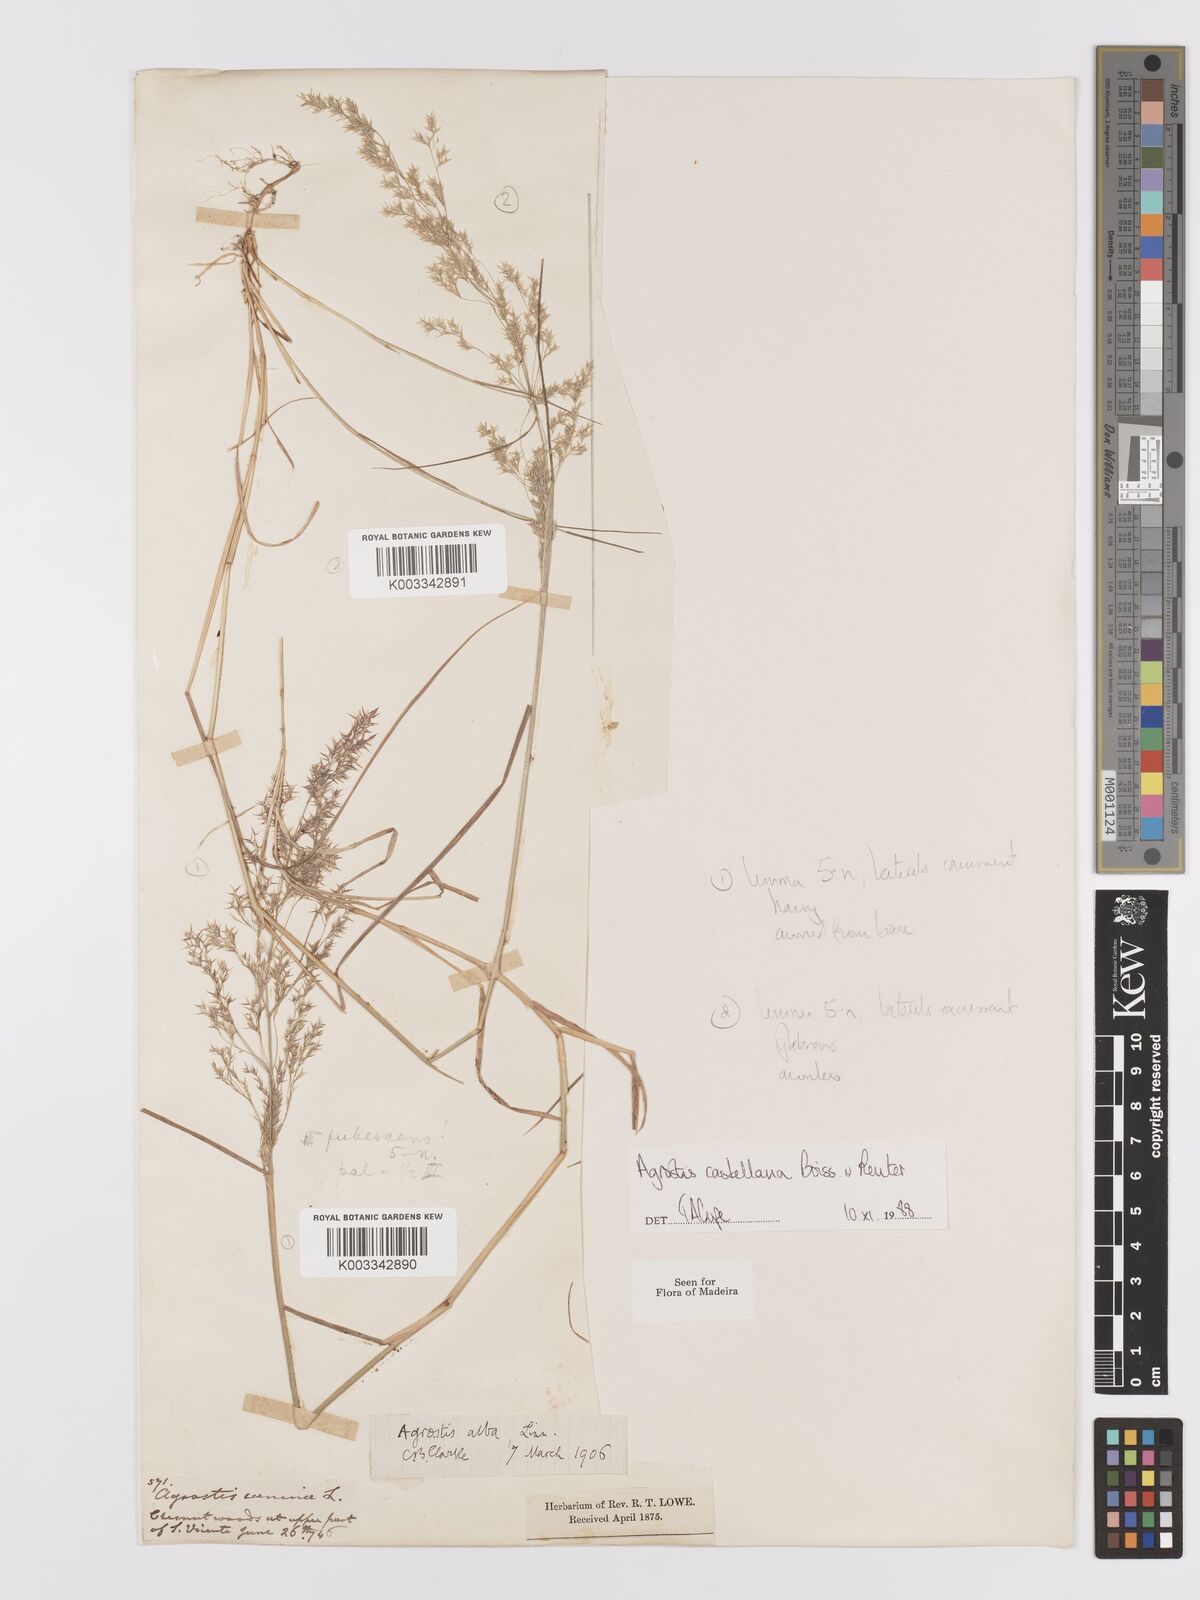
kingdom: Plantae
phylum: Tracheophyta
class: Liliopsida
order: Poales
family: Poaceae
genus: Agrostis
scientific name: Agrostis castellana
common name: Highland bent
